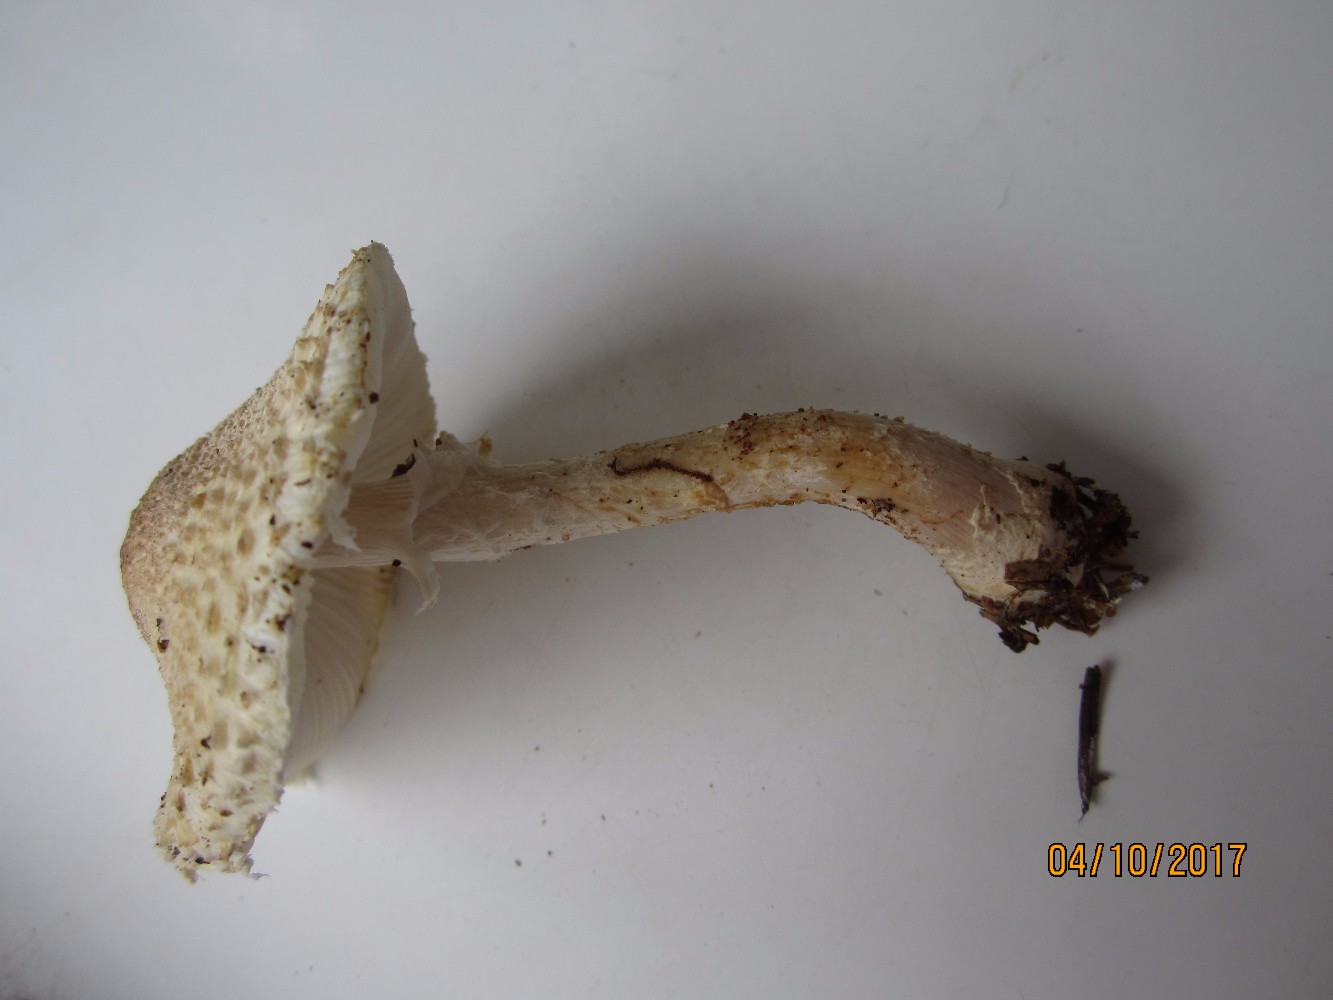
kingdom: Fungi
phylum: Basidiomycota
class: Agaricomycetes
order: Agaricales
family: Agaricaceae
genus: Lepiota
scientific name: Lepiota clypeolaria
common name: flosset parasolhat
